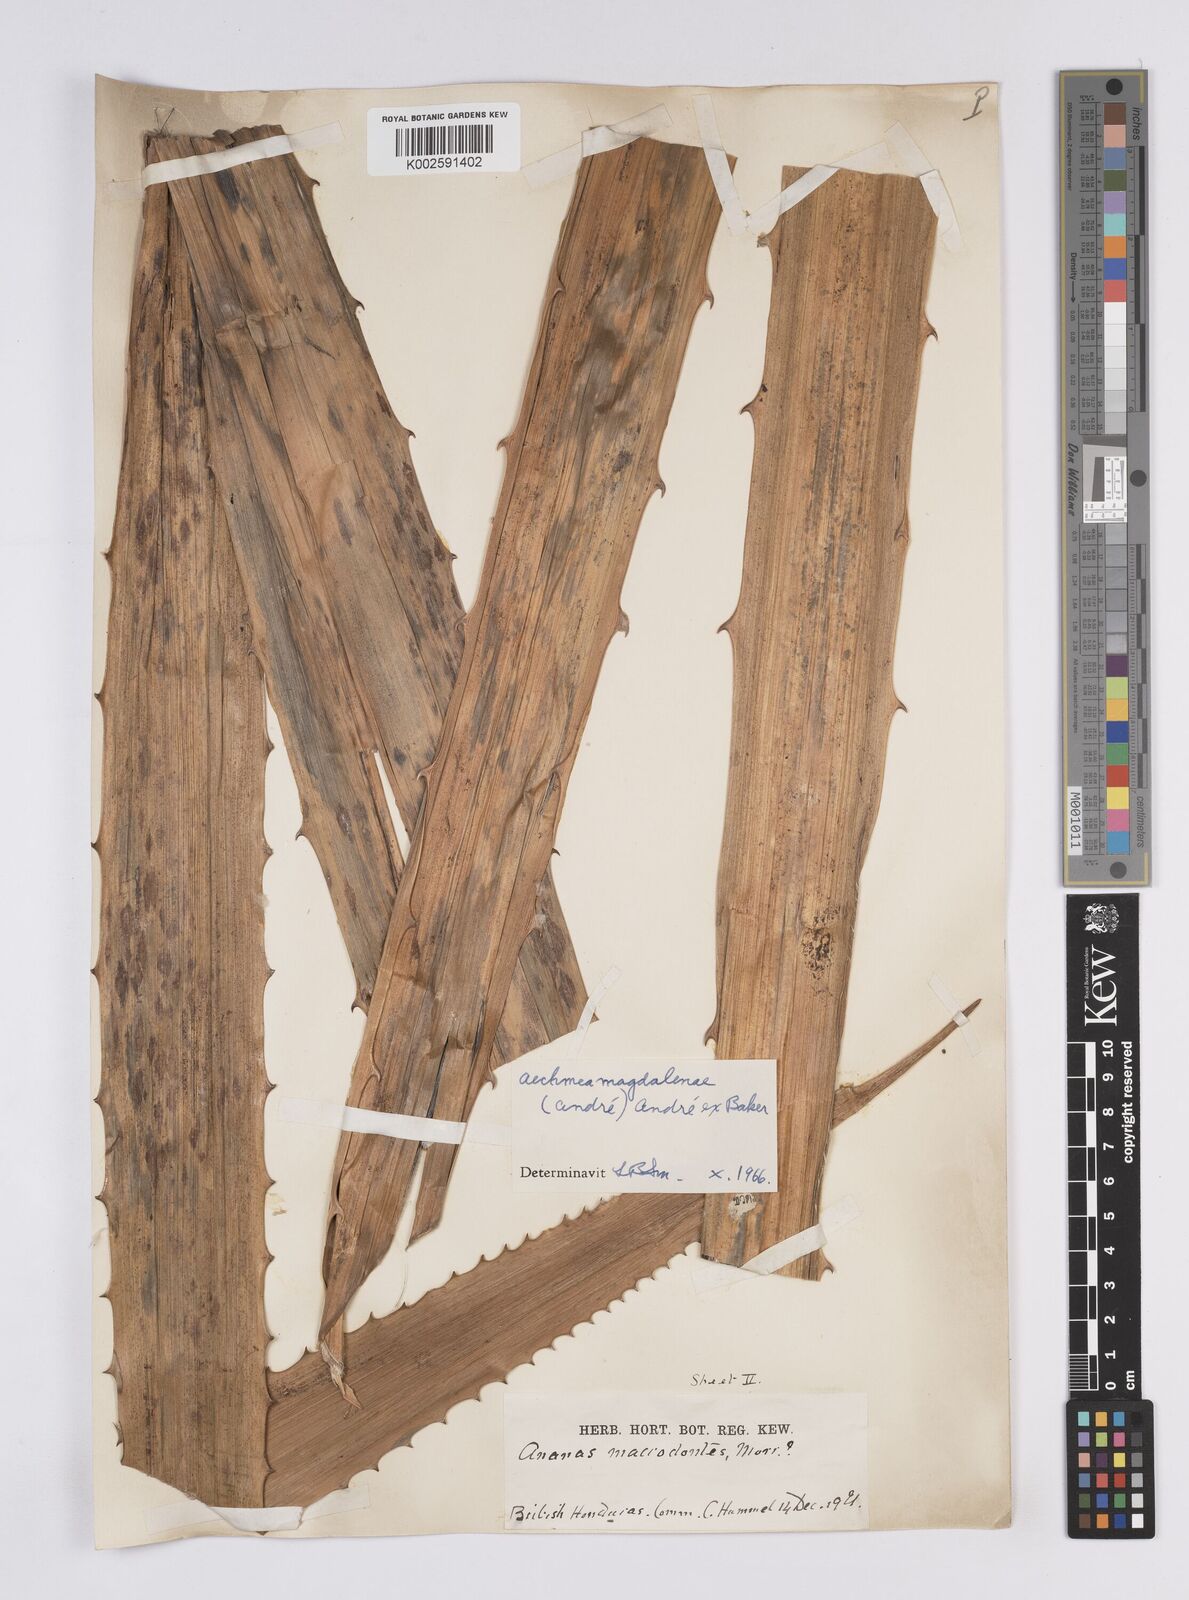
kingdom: Plantae
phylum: Tracheophyta
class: Liliopsida
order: Poales
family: Bromeliaceae
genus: Aechmea
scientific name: Aechmea magdalenae
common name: Arghan
